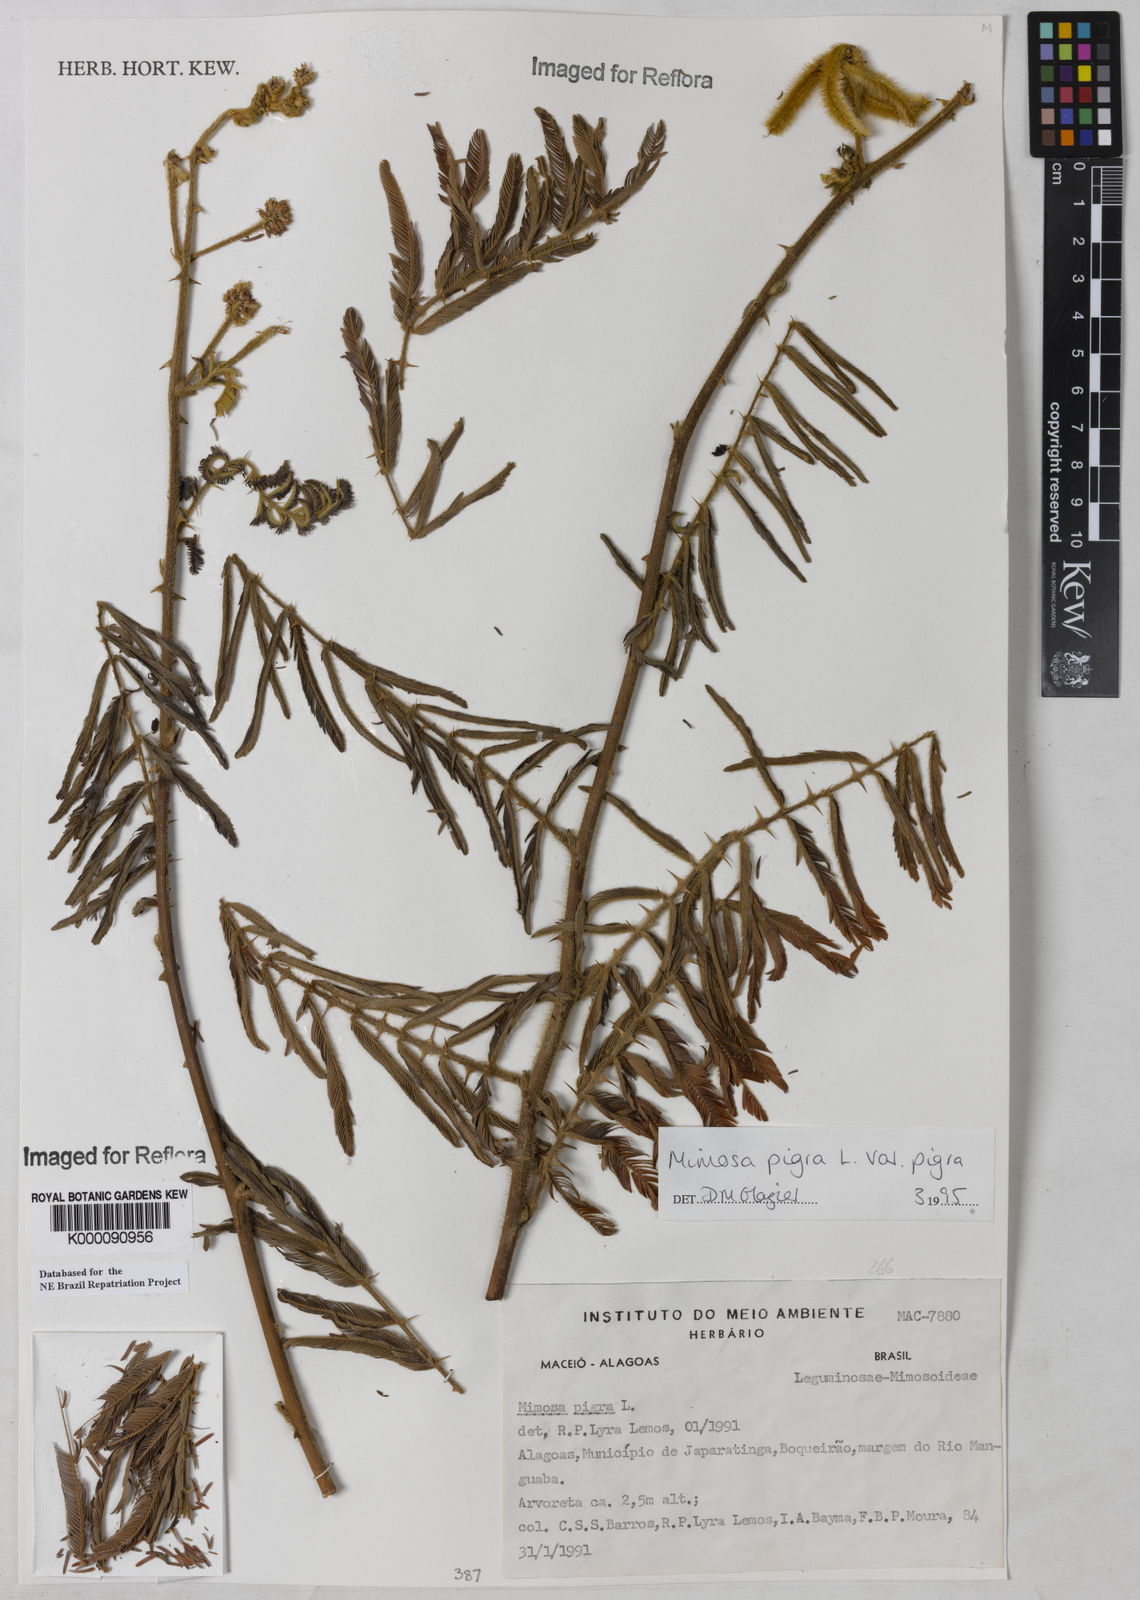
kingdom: Plantae
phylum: Tracheophyta
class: Magnoliopsida
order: Fabales
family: Fabaceae
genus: Mimosa
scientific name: Mimosa pigra
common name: Black mimosa
